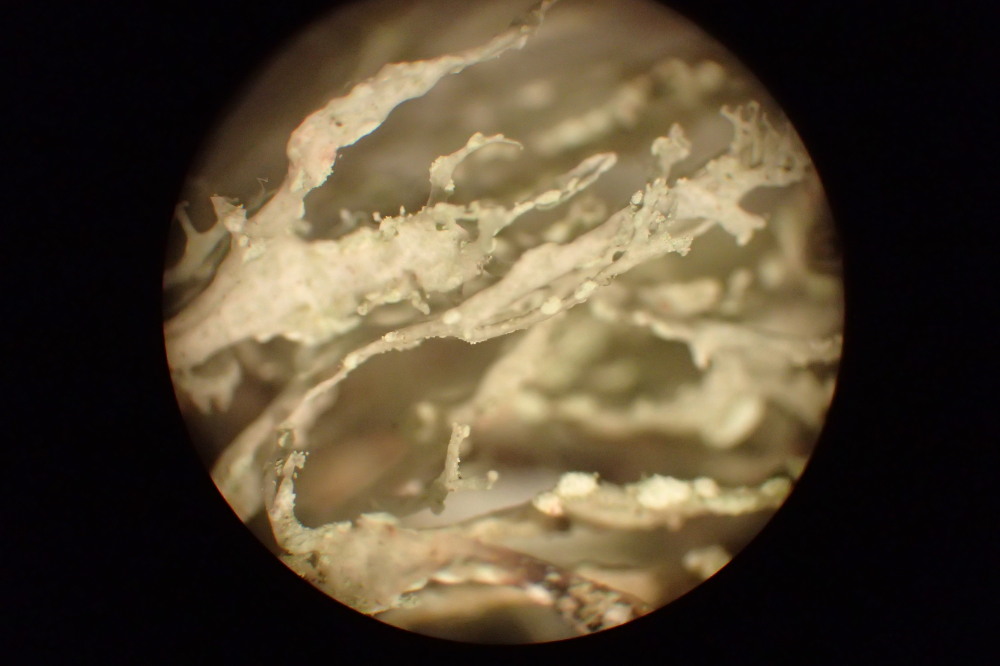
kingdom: Fungi
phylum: Ascomycota
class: Lecanoromycetes
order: Lecanorales
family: Ramalinaceae
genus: Ramalina
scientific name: Ramalina farinacea
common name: melet grenlav
